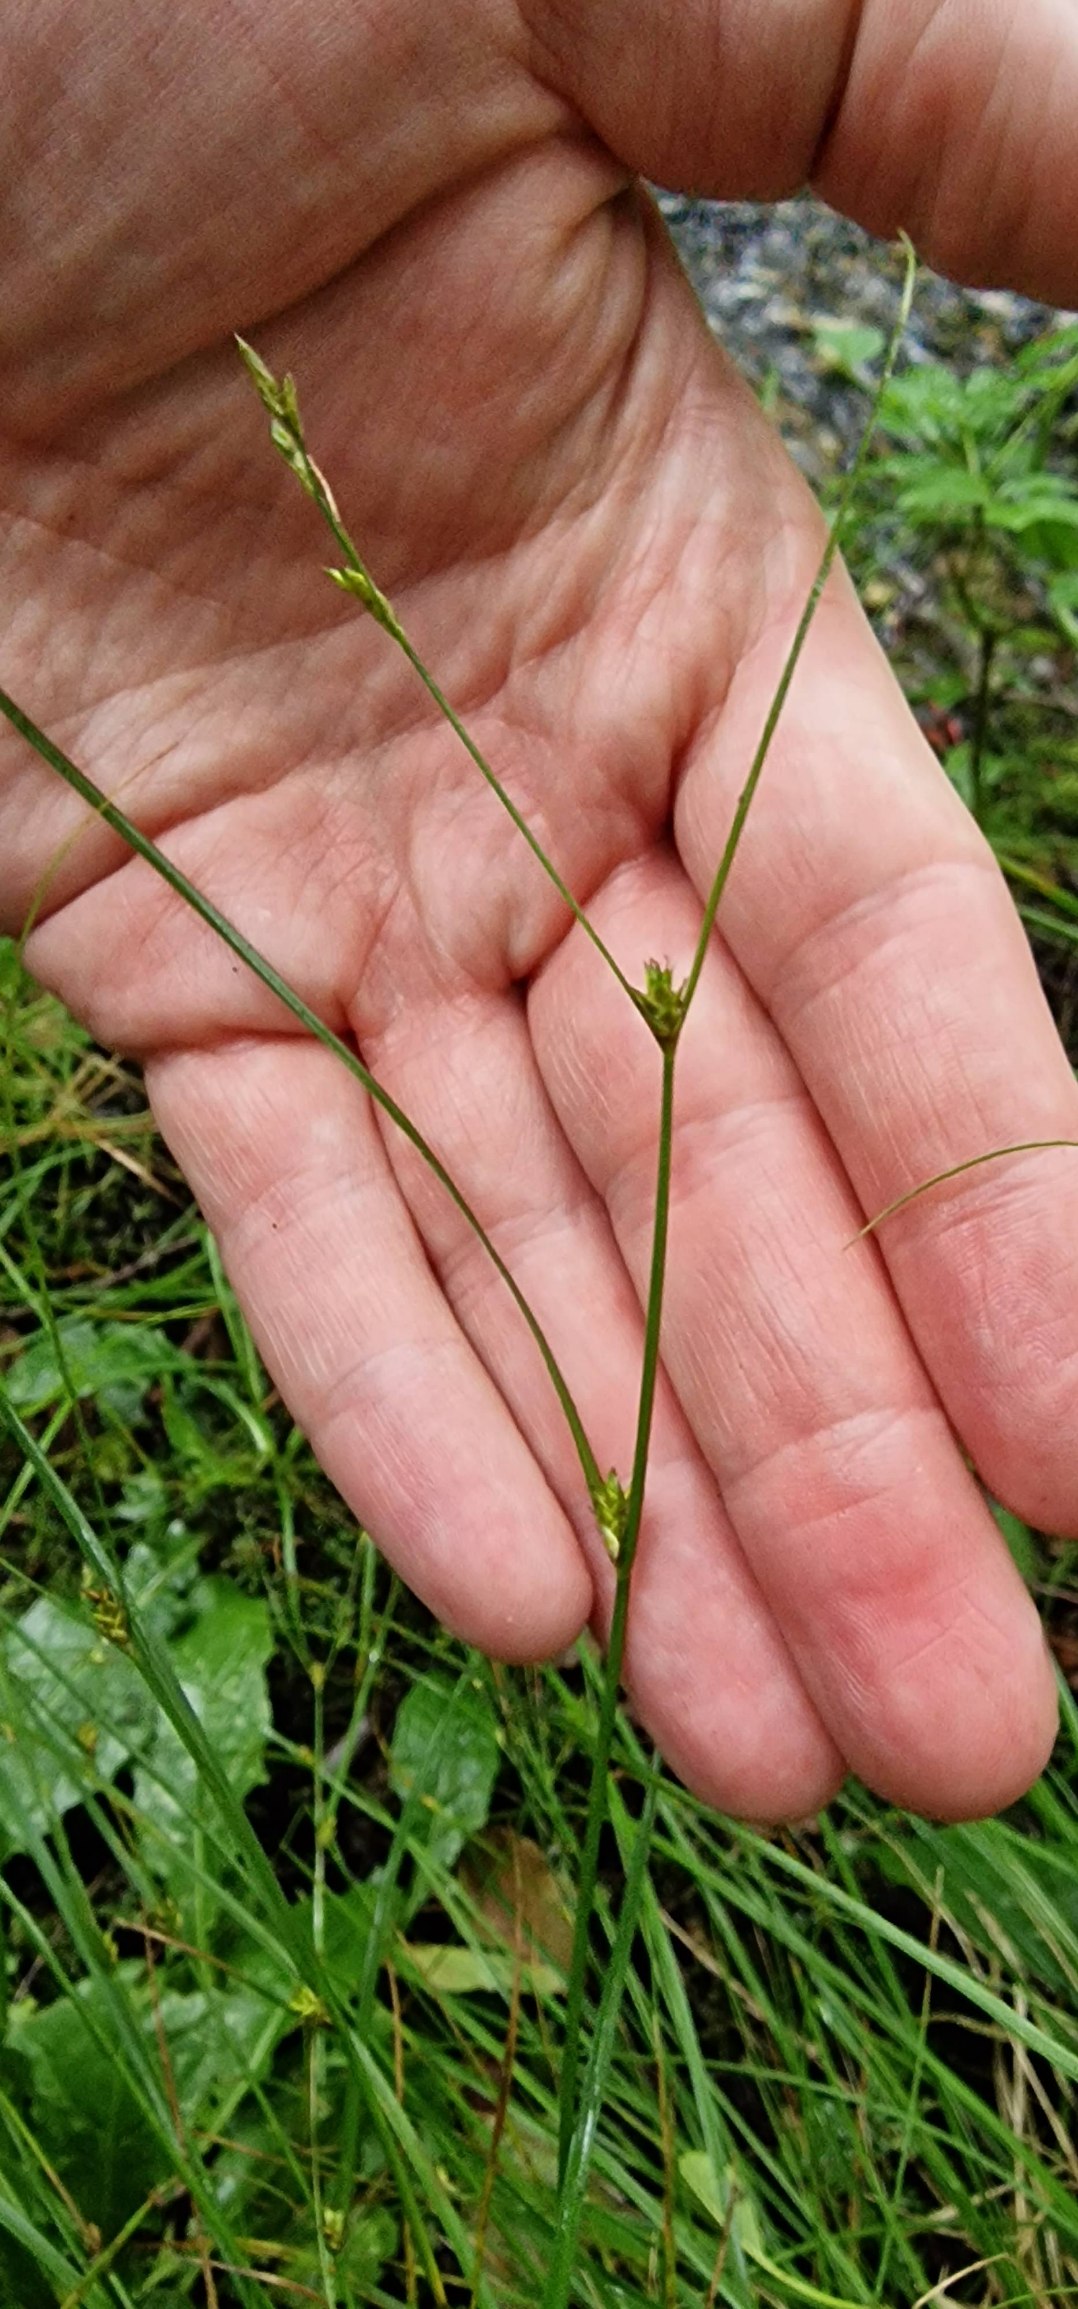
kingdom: Plantae
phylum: Tracheophyta
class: Liliopsida
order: Poales
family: Cyperaceae
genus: Carex
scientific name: Carex remota
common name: Akselblomstret star
